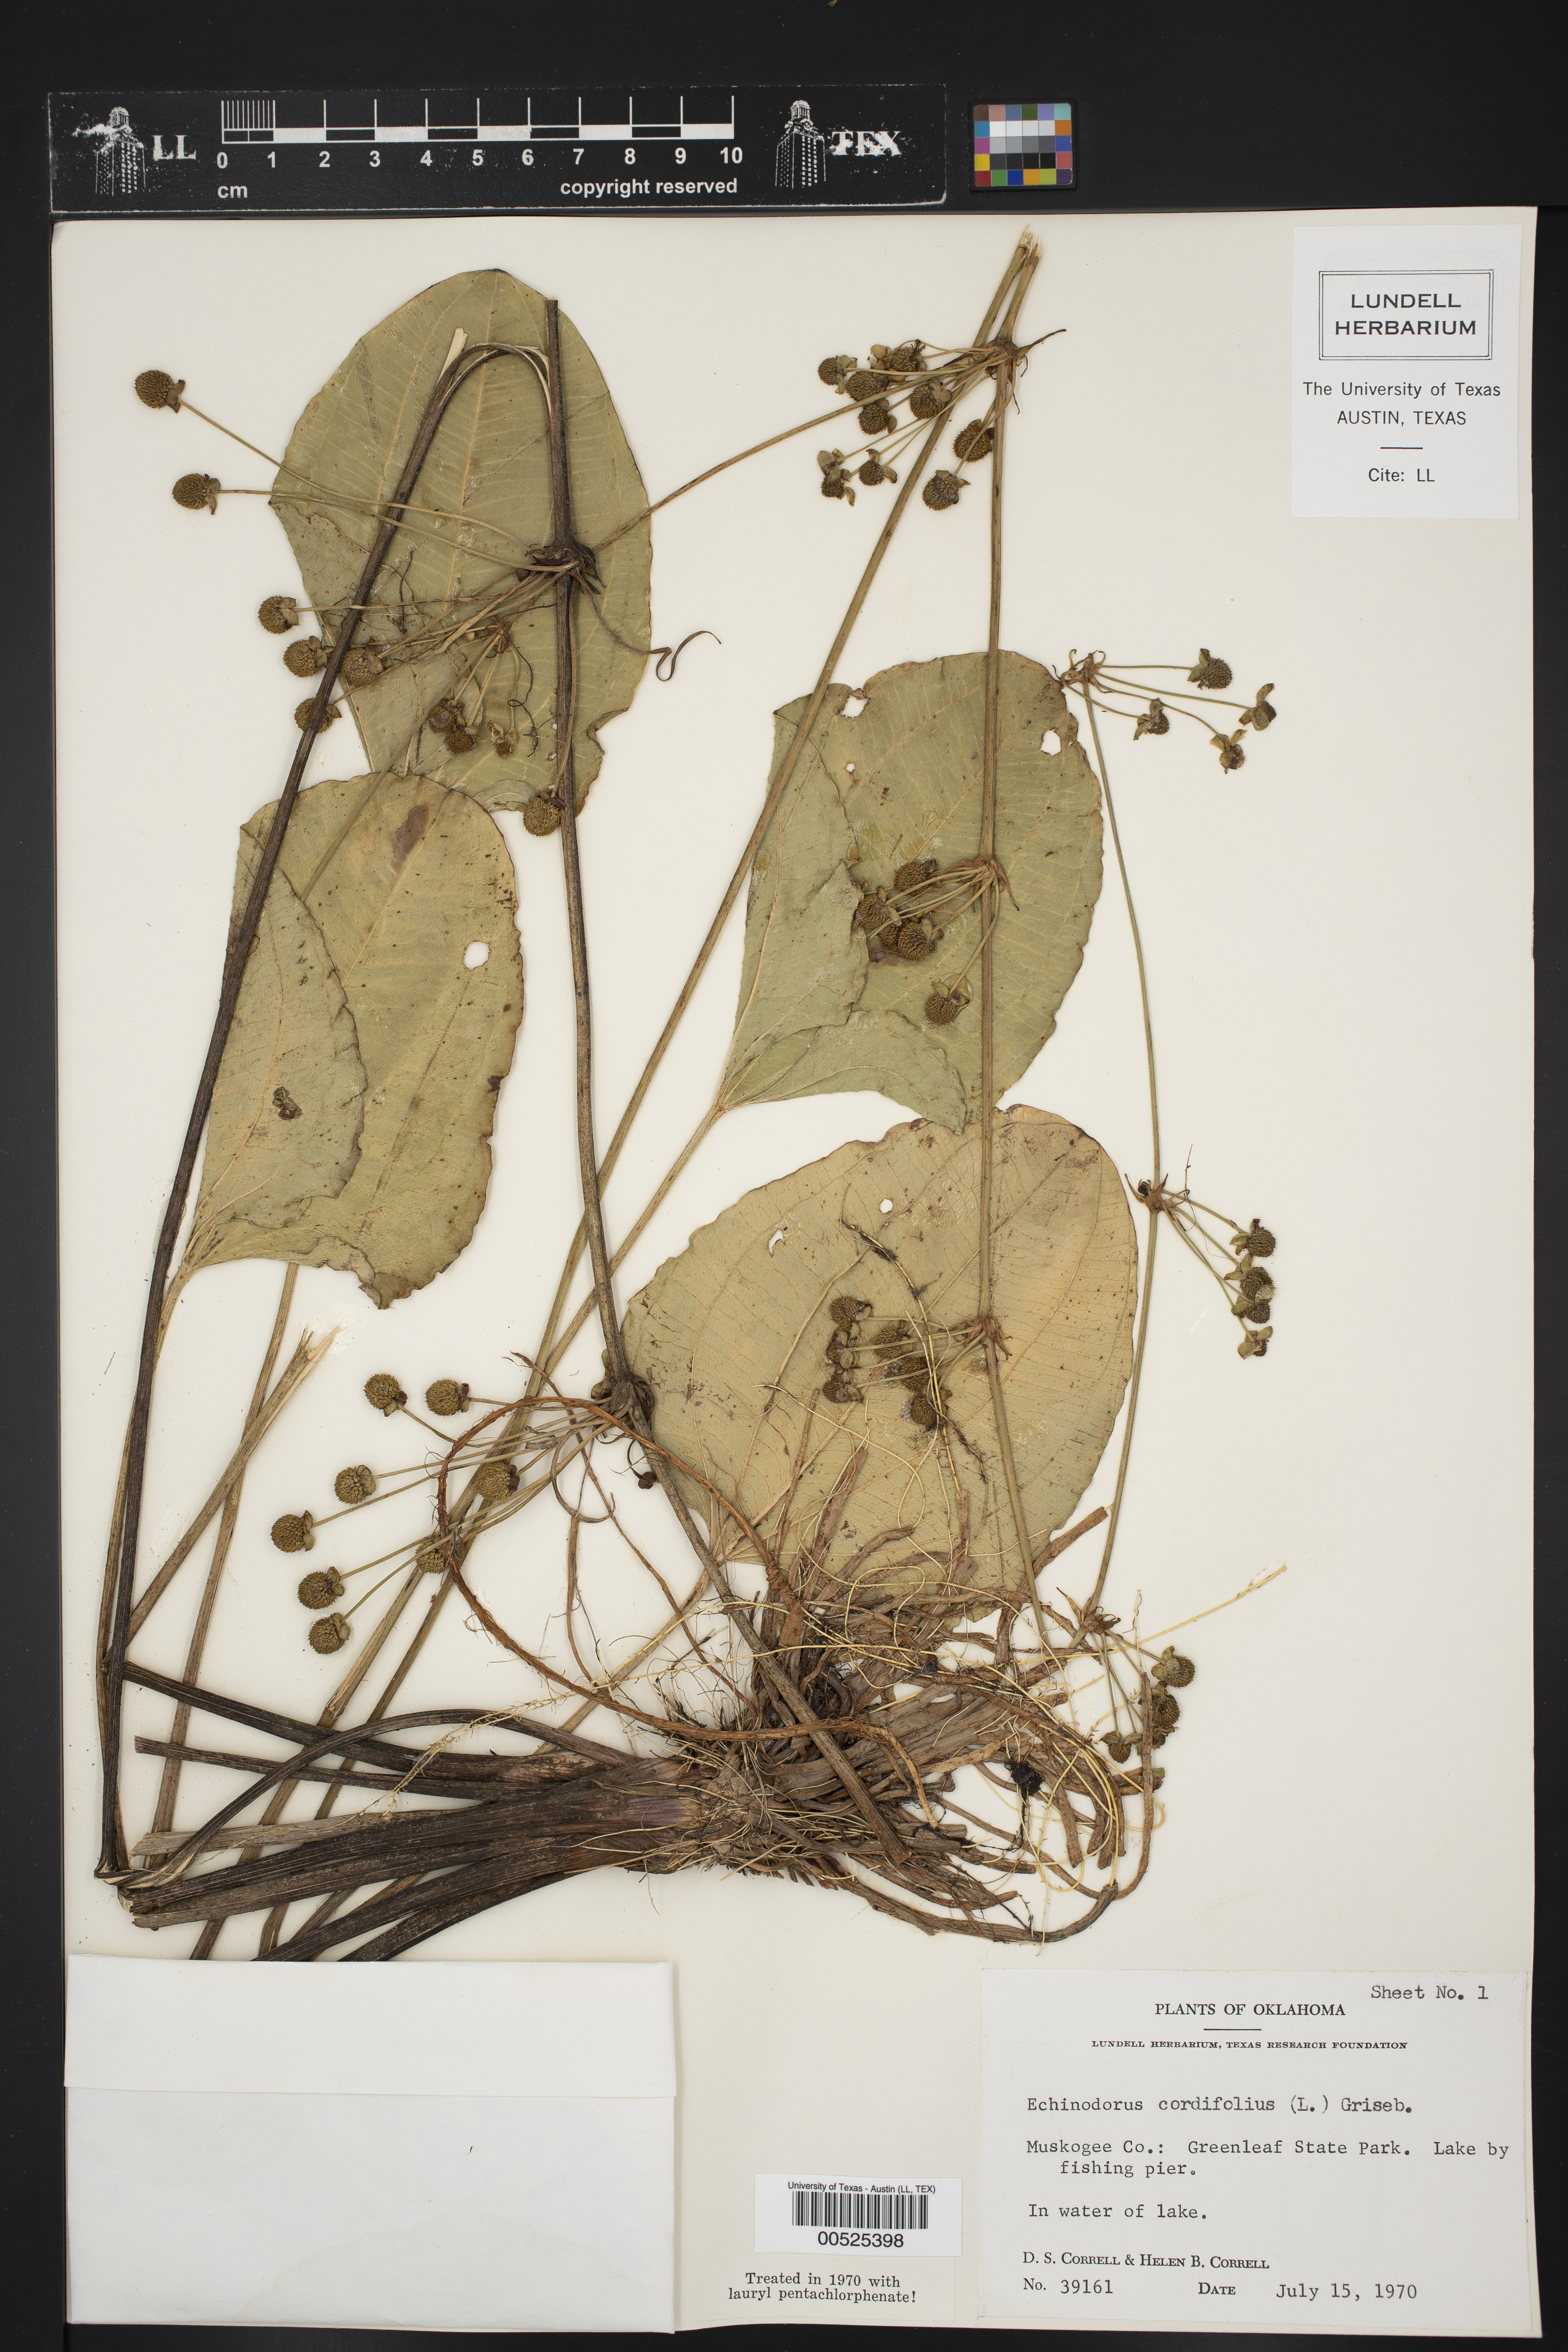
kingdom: Plantae
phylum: Tracheophyta
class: Liliopsida
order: Alismatales
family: Alismataceae
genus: Echinodorus
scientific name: Echinodorus
